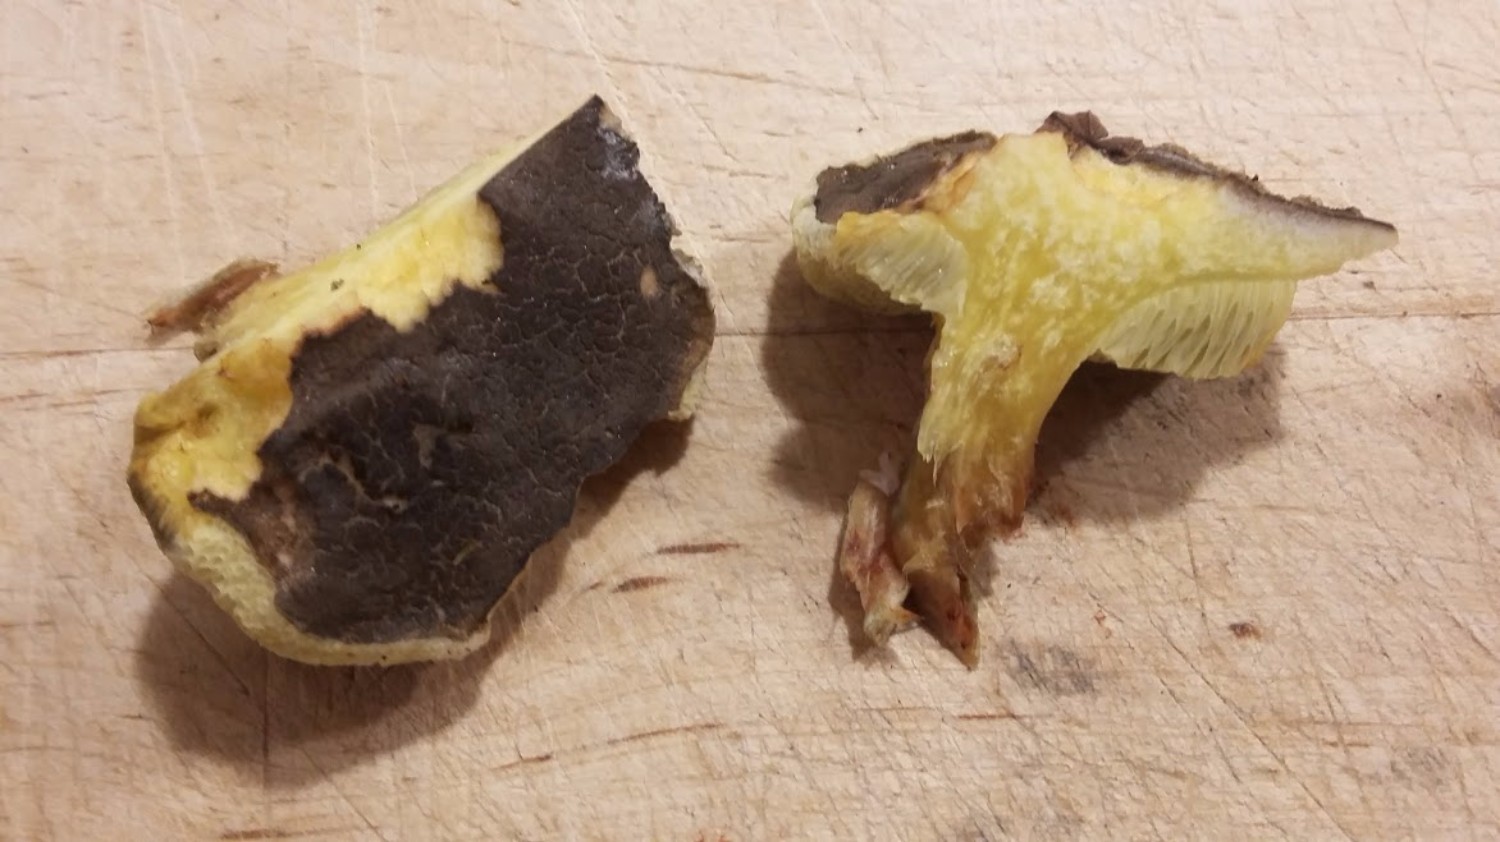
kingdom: Fungi
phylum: Basidiomycota
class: Agaricomycetes
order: Boletales
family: Boletaceae
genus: Xerocomellus
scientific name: Xerocomellus pruinatus
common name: dugget rørhat
